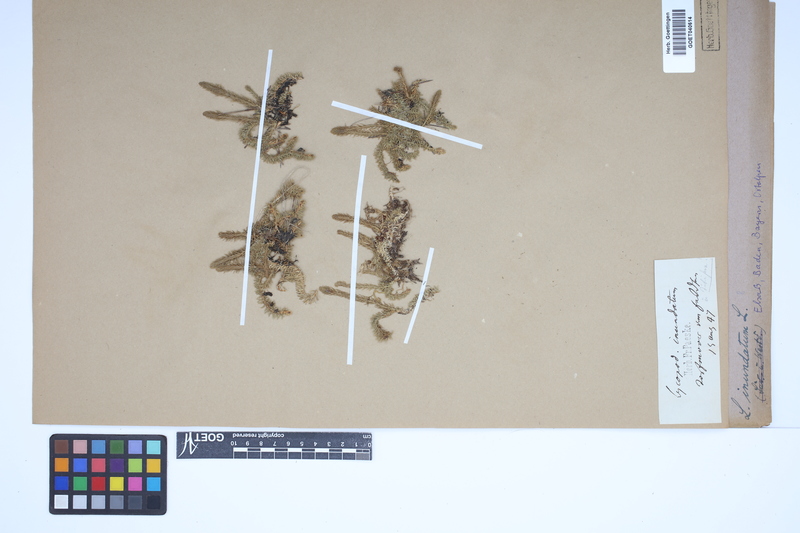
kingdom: Plantae
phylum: Tracheophyta
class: Lycopodiopsida
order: Lycopodiales
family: Lycopodiaceae
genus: Lycopodiella
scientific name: Lycopodiella inundata
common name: Marsh clubmoss
